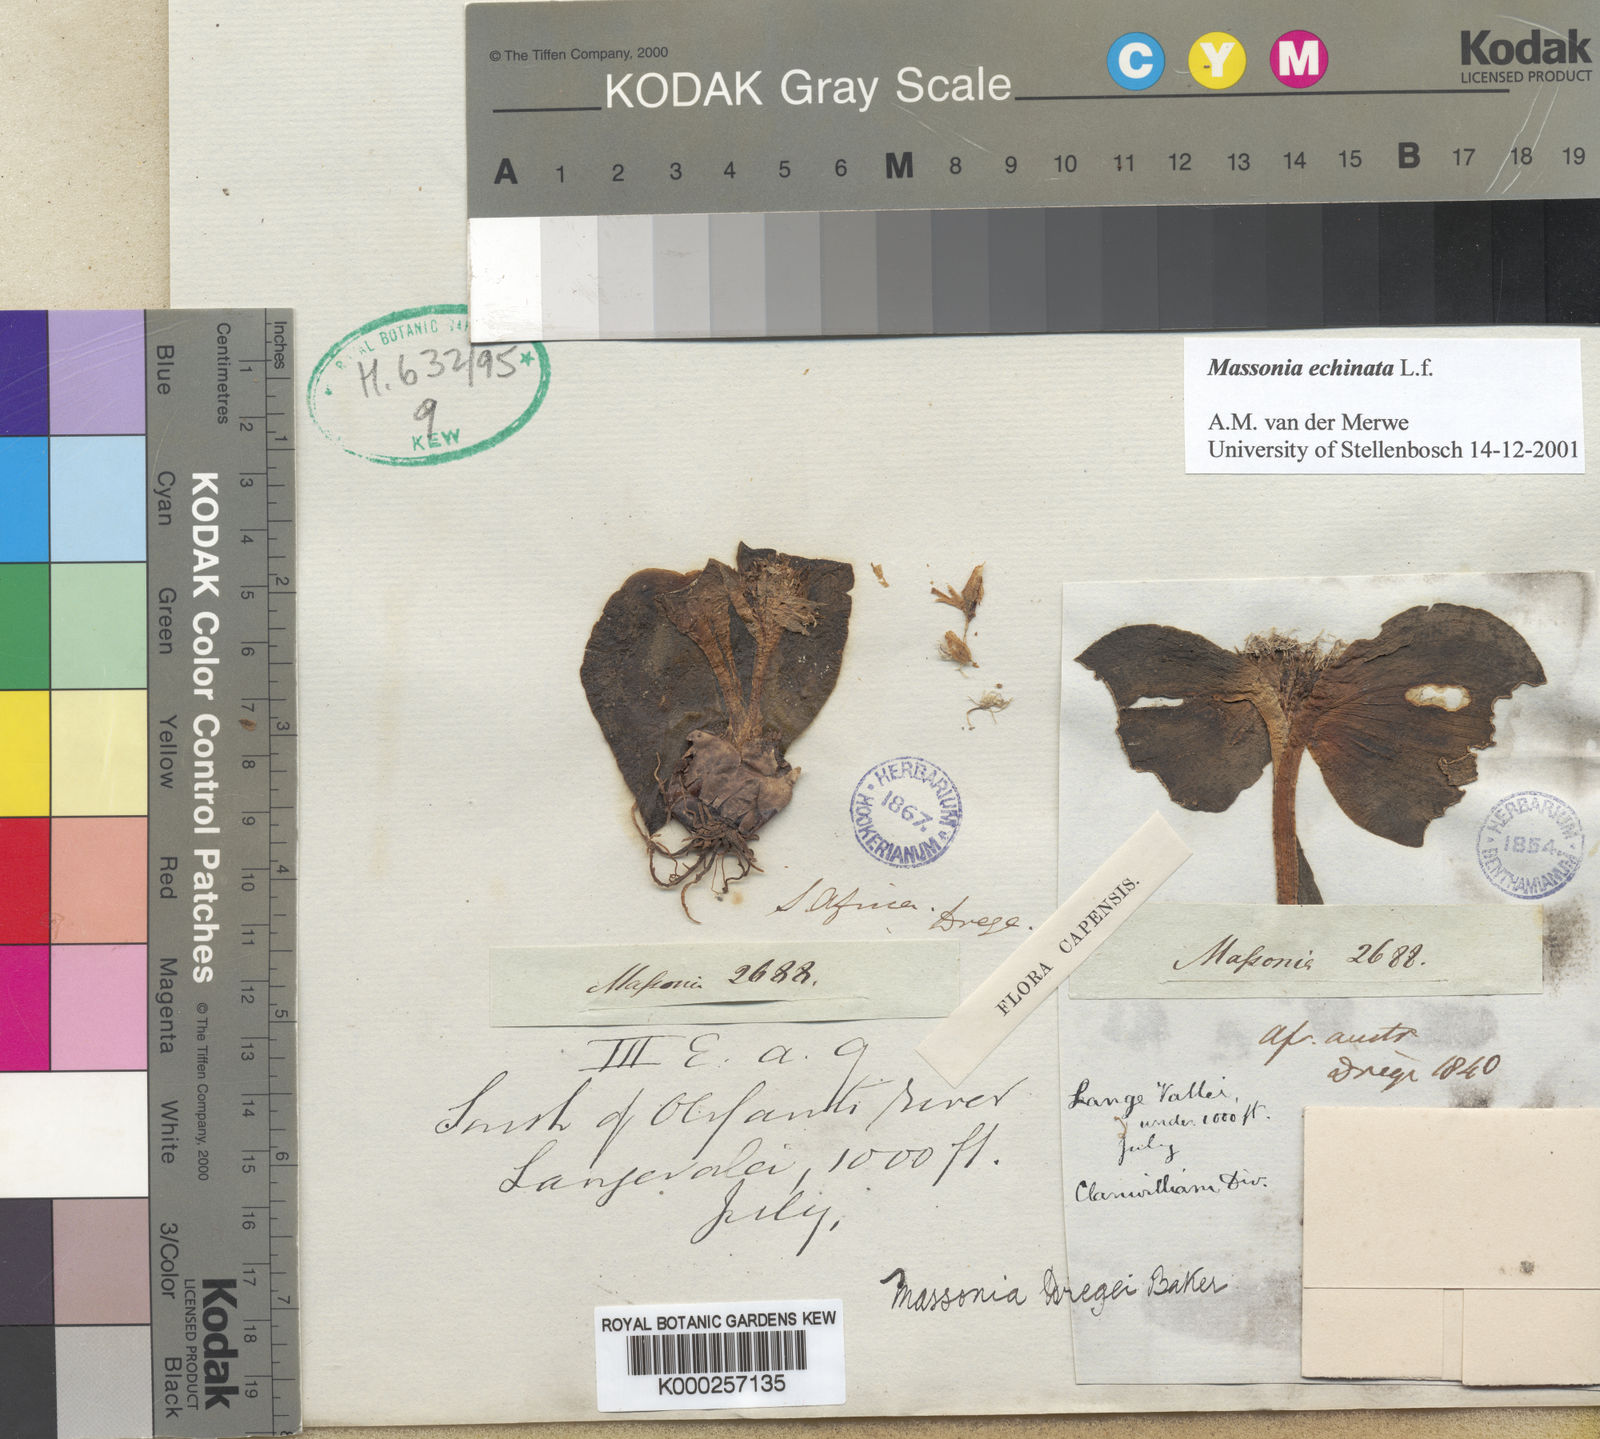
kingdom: Plantae
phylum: Tracheophyta
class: Liliopsida
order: Asparagales
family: Asparagaceae
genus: Massonia
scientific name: Massonia echinata
